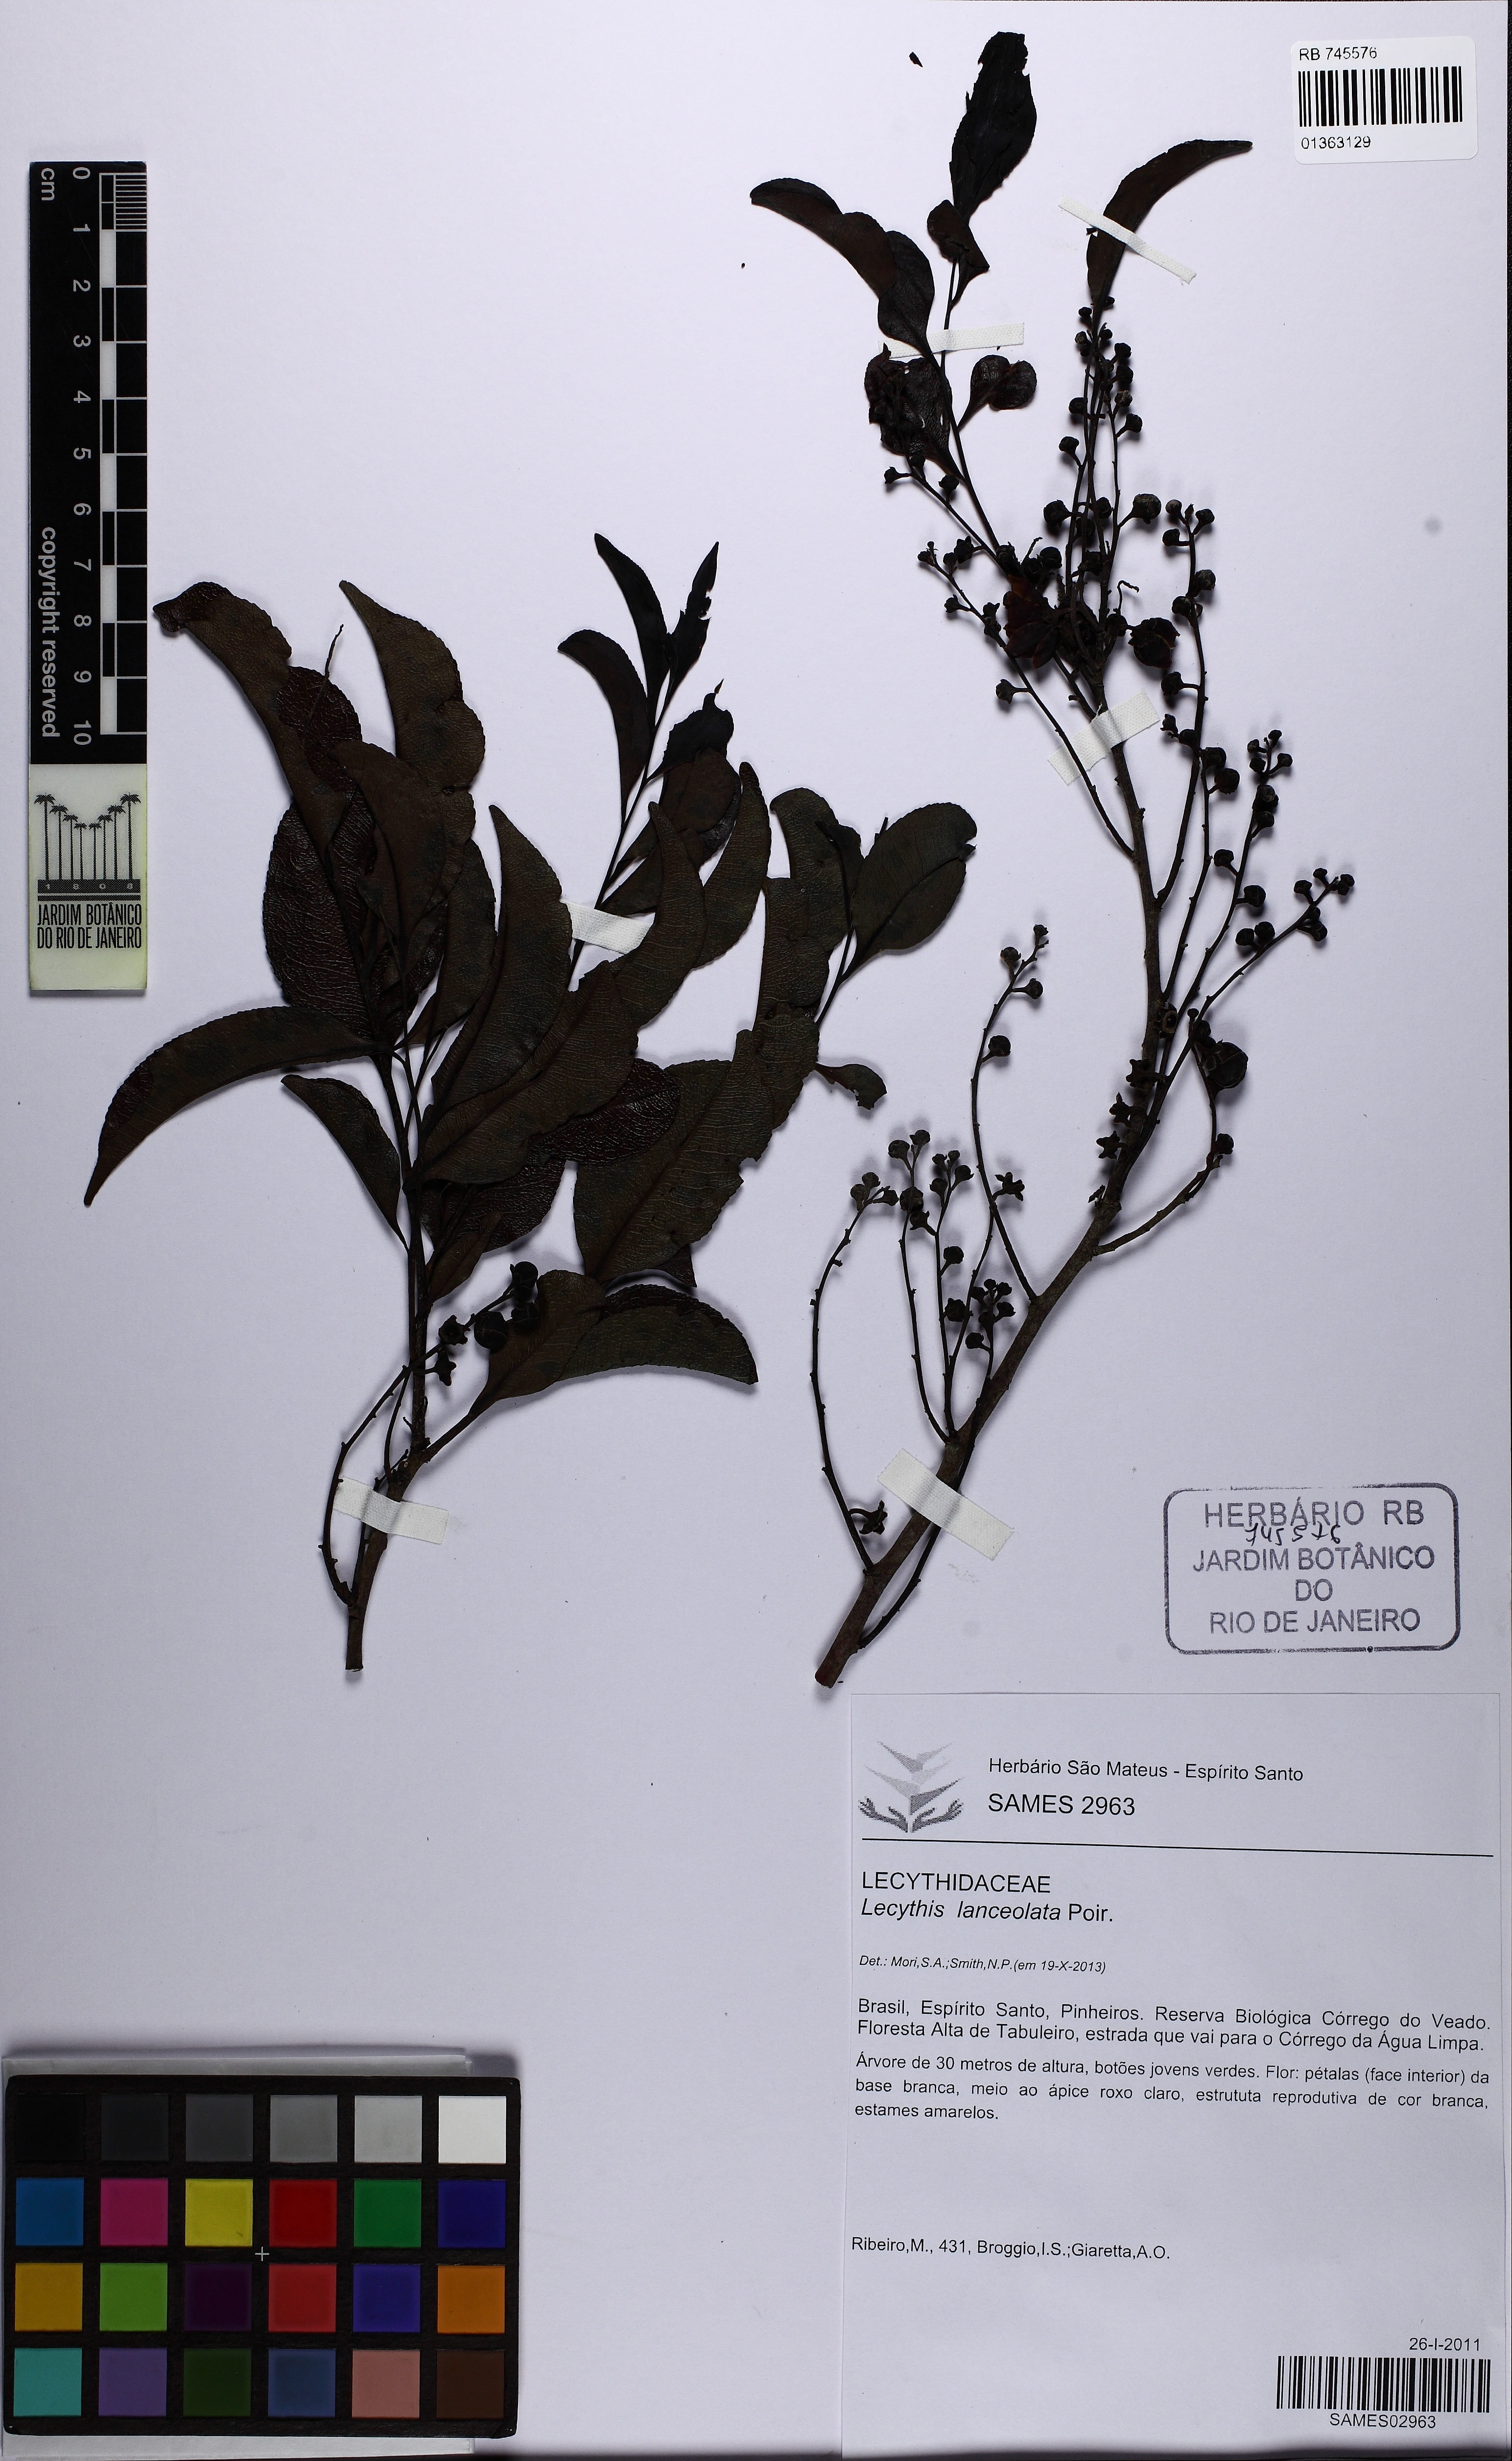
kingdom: Plantae
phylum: Tracheophyta
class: Magnoliopsida
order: Ericales
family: Lecythidaceae
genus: Lecythis
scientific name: Lecythis lanceolata
